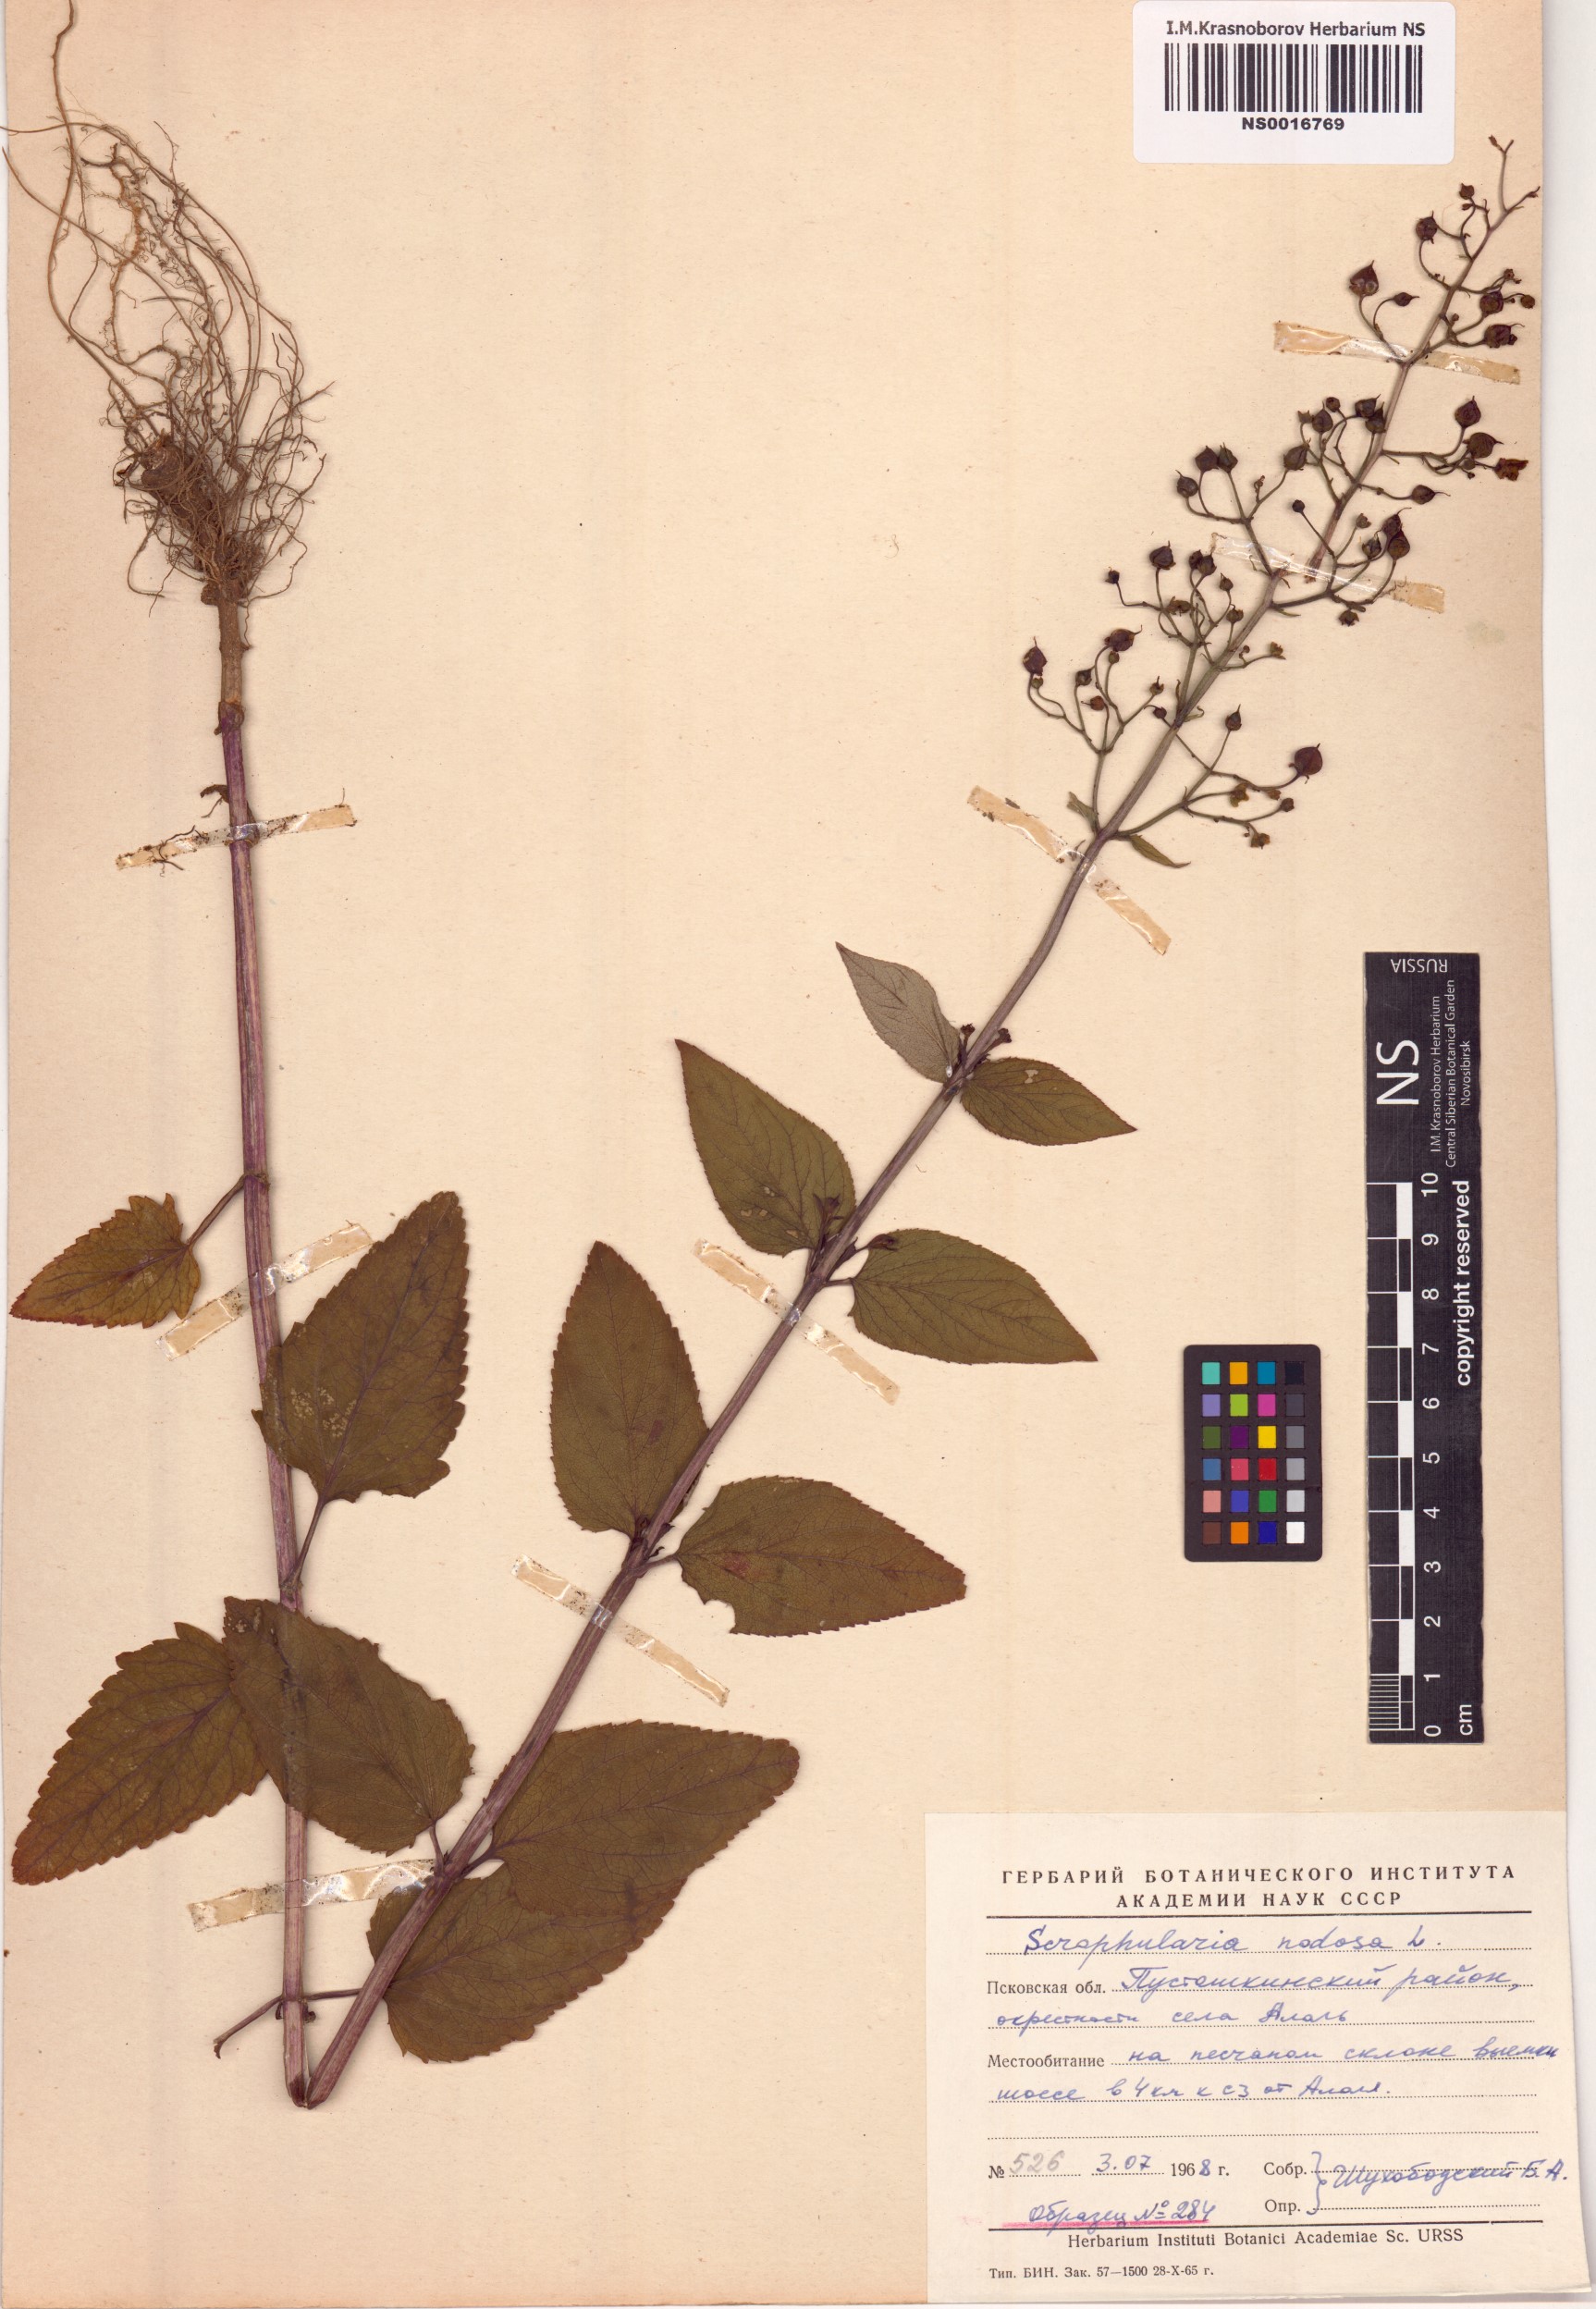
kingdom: Plantae
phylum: Tracheophyta
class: Magnoliopsida
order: Lamiales
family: Scrophulariaceae
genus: Scrophularia
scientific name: Scrophularia nodosa
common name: Common figwort
